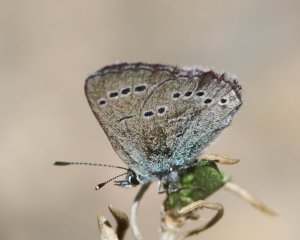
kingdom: Animalia
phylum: Arthropoda
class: Insecta
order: Lepidoptera
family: Lycaenidae
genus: Glaucopsyche
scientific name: Glaucopsyche lygdamus
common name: Silvery Blue
